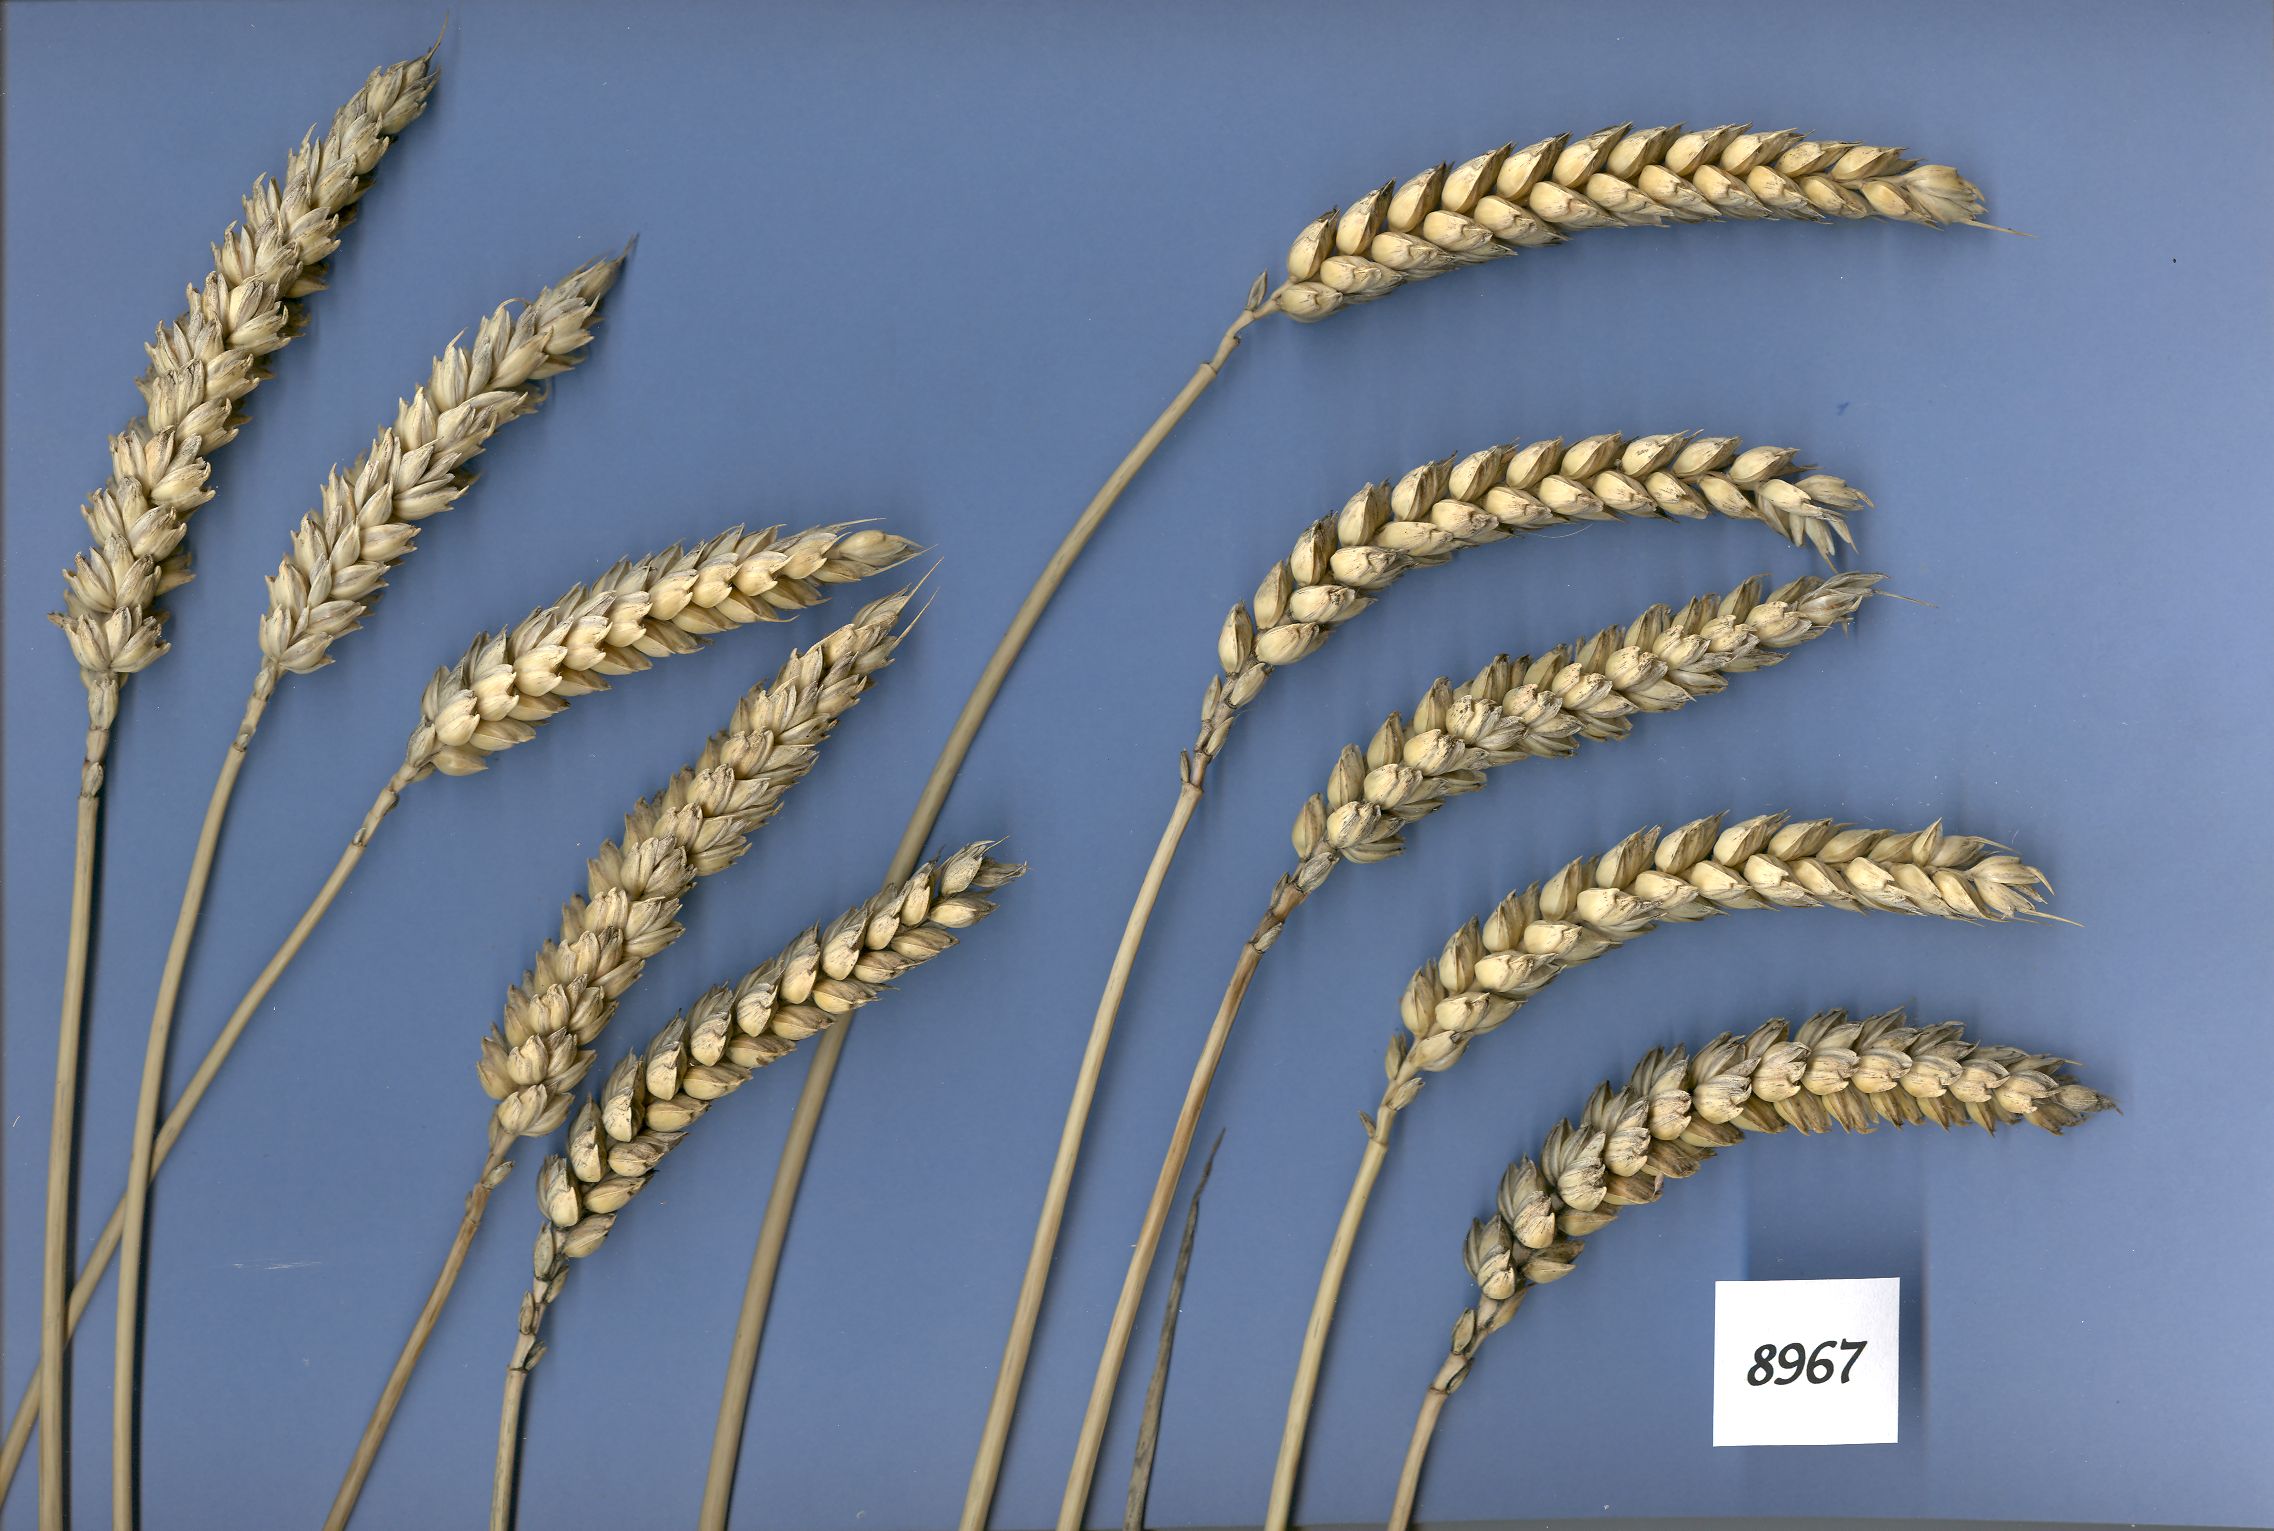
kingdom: Plantae
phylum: Tracheophyta
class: Liliopsida
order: Poales
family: Poaceae
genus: Triticum
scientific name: Triticum aestivum
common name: Common wheat
